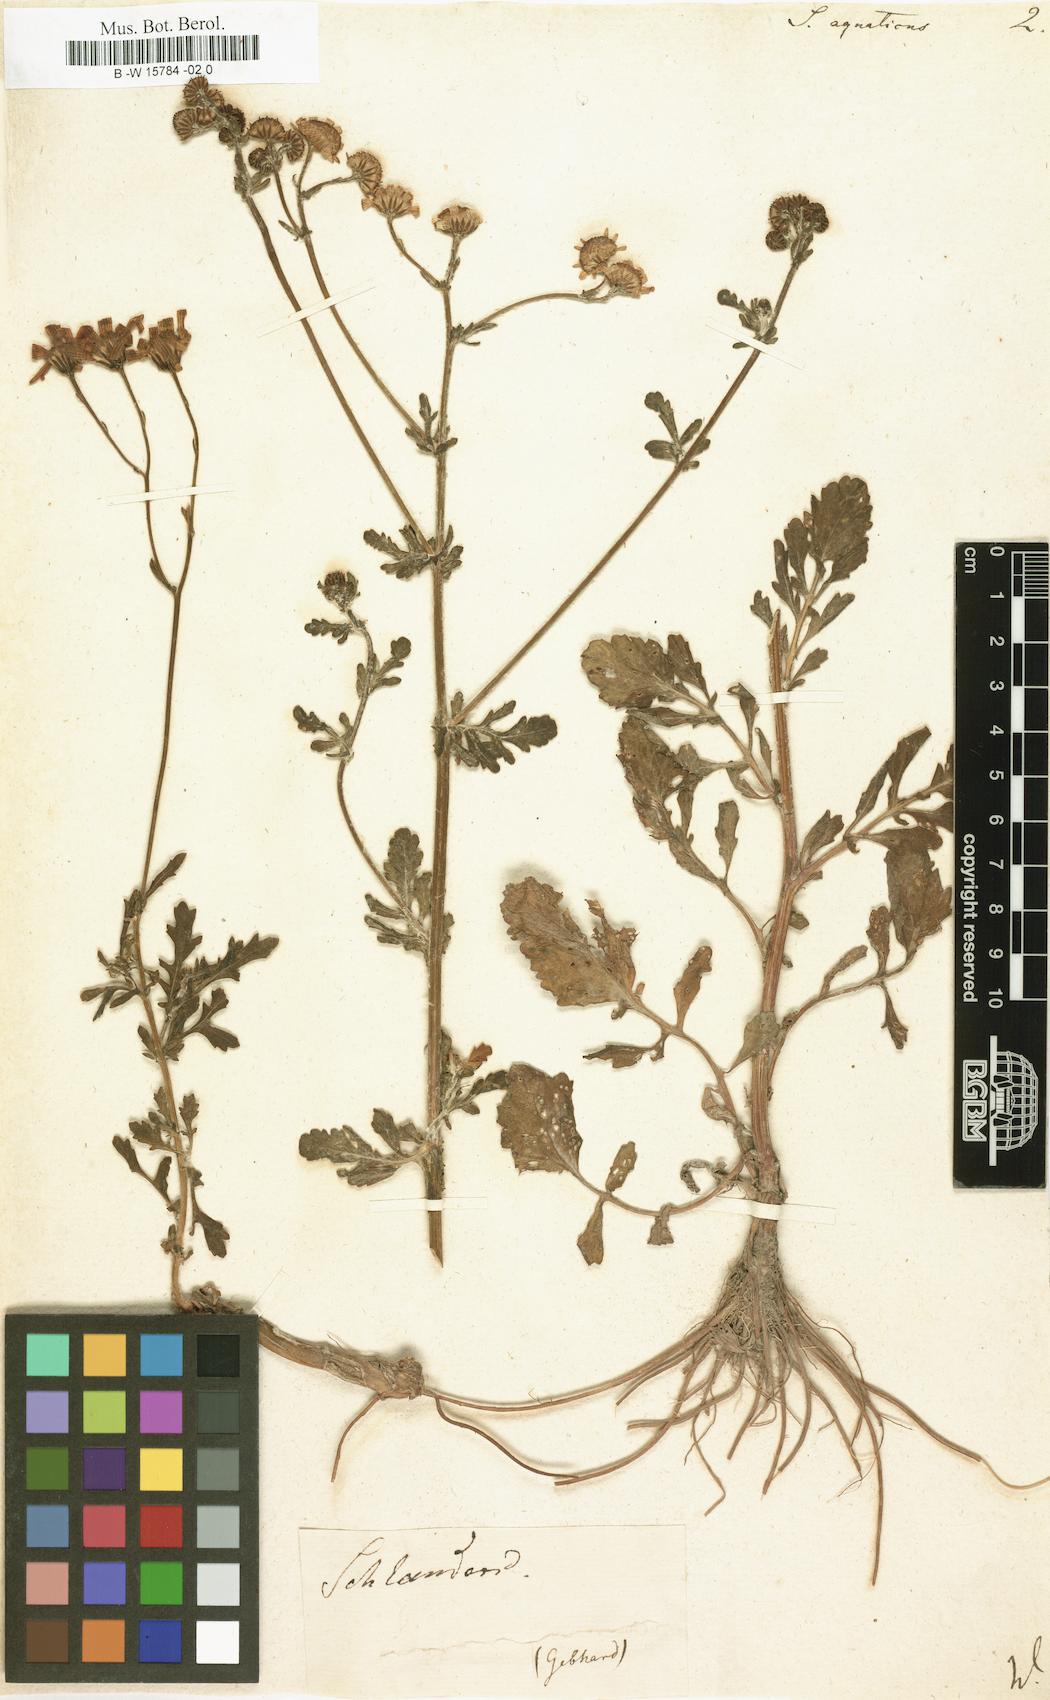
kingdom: Plantae
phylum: Tracheophyta
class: Magnoliopsida
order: Asterales
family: Asteraceae
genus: Senecio
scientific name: Senecio aquaticus
